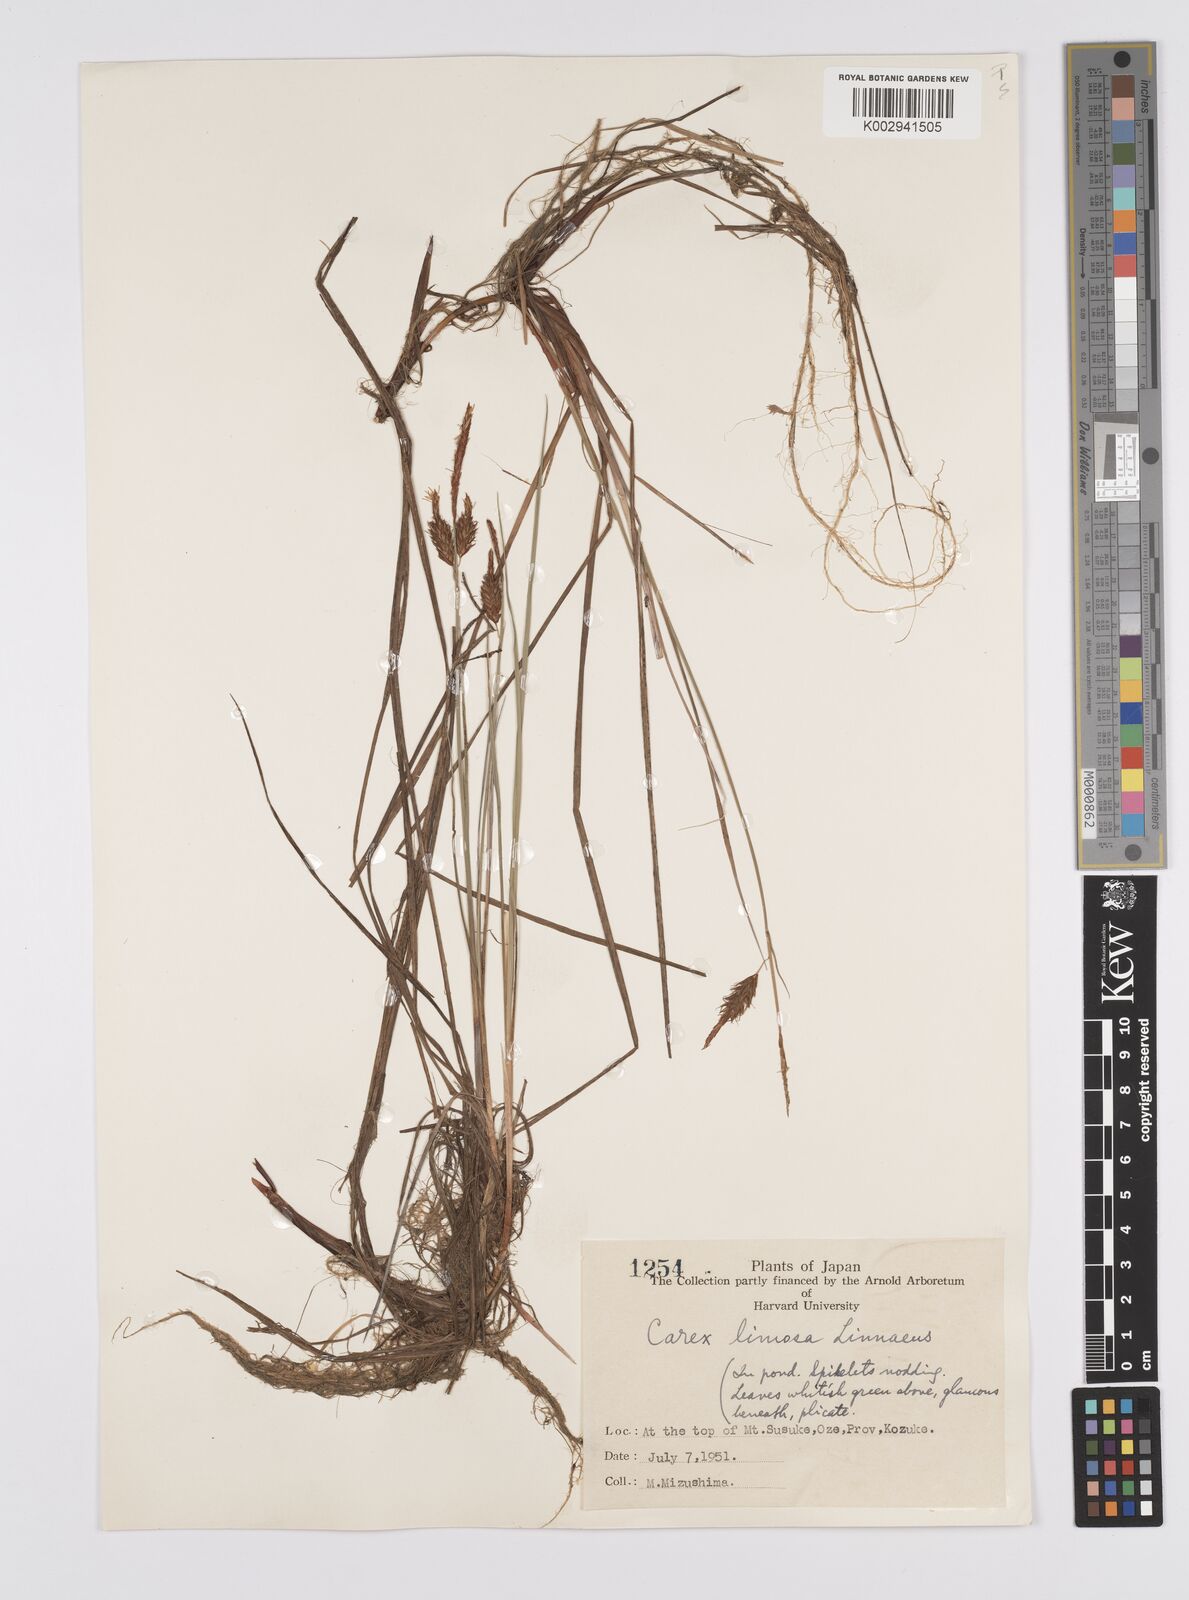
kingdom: Plantae
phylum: Tracheophyta
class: Liliopsida
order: Poales
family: Cyperaceae
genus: Carex
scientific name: Carex limosa
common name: Bog sedge
